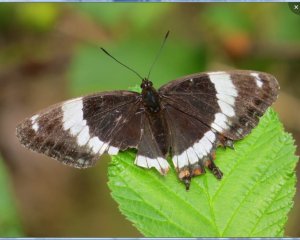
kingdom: Animalia
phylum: Arthropoda
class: Insecta
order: Lepidoptera
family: Nymphalidae
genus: Limenitis
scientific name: Limenitis arthemis
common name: Red-spotted Admiral
